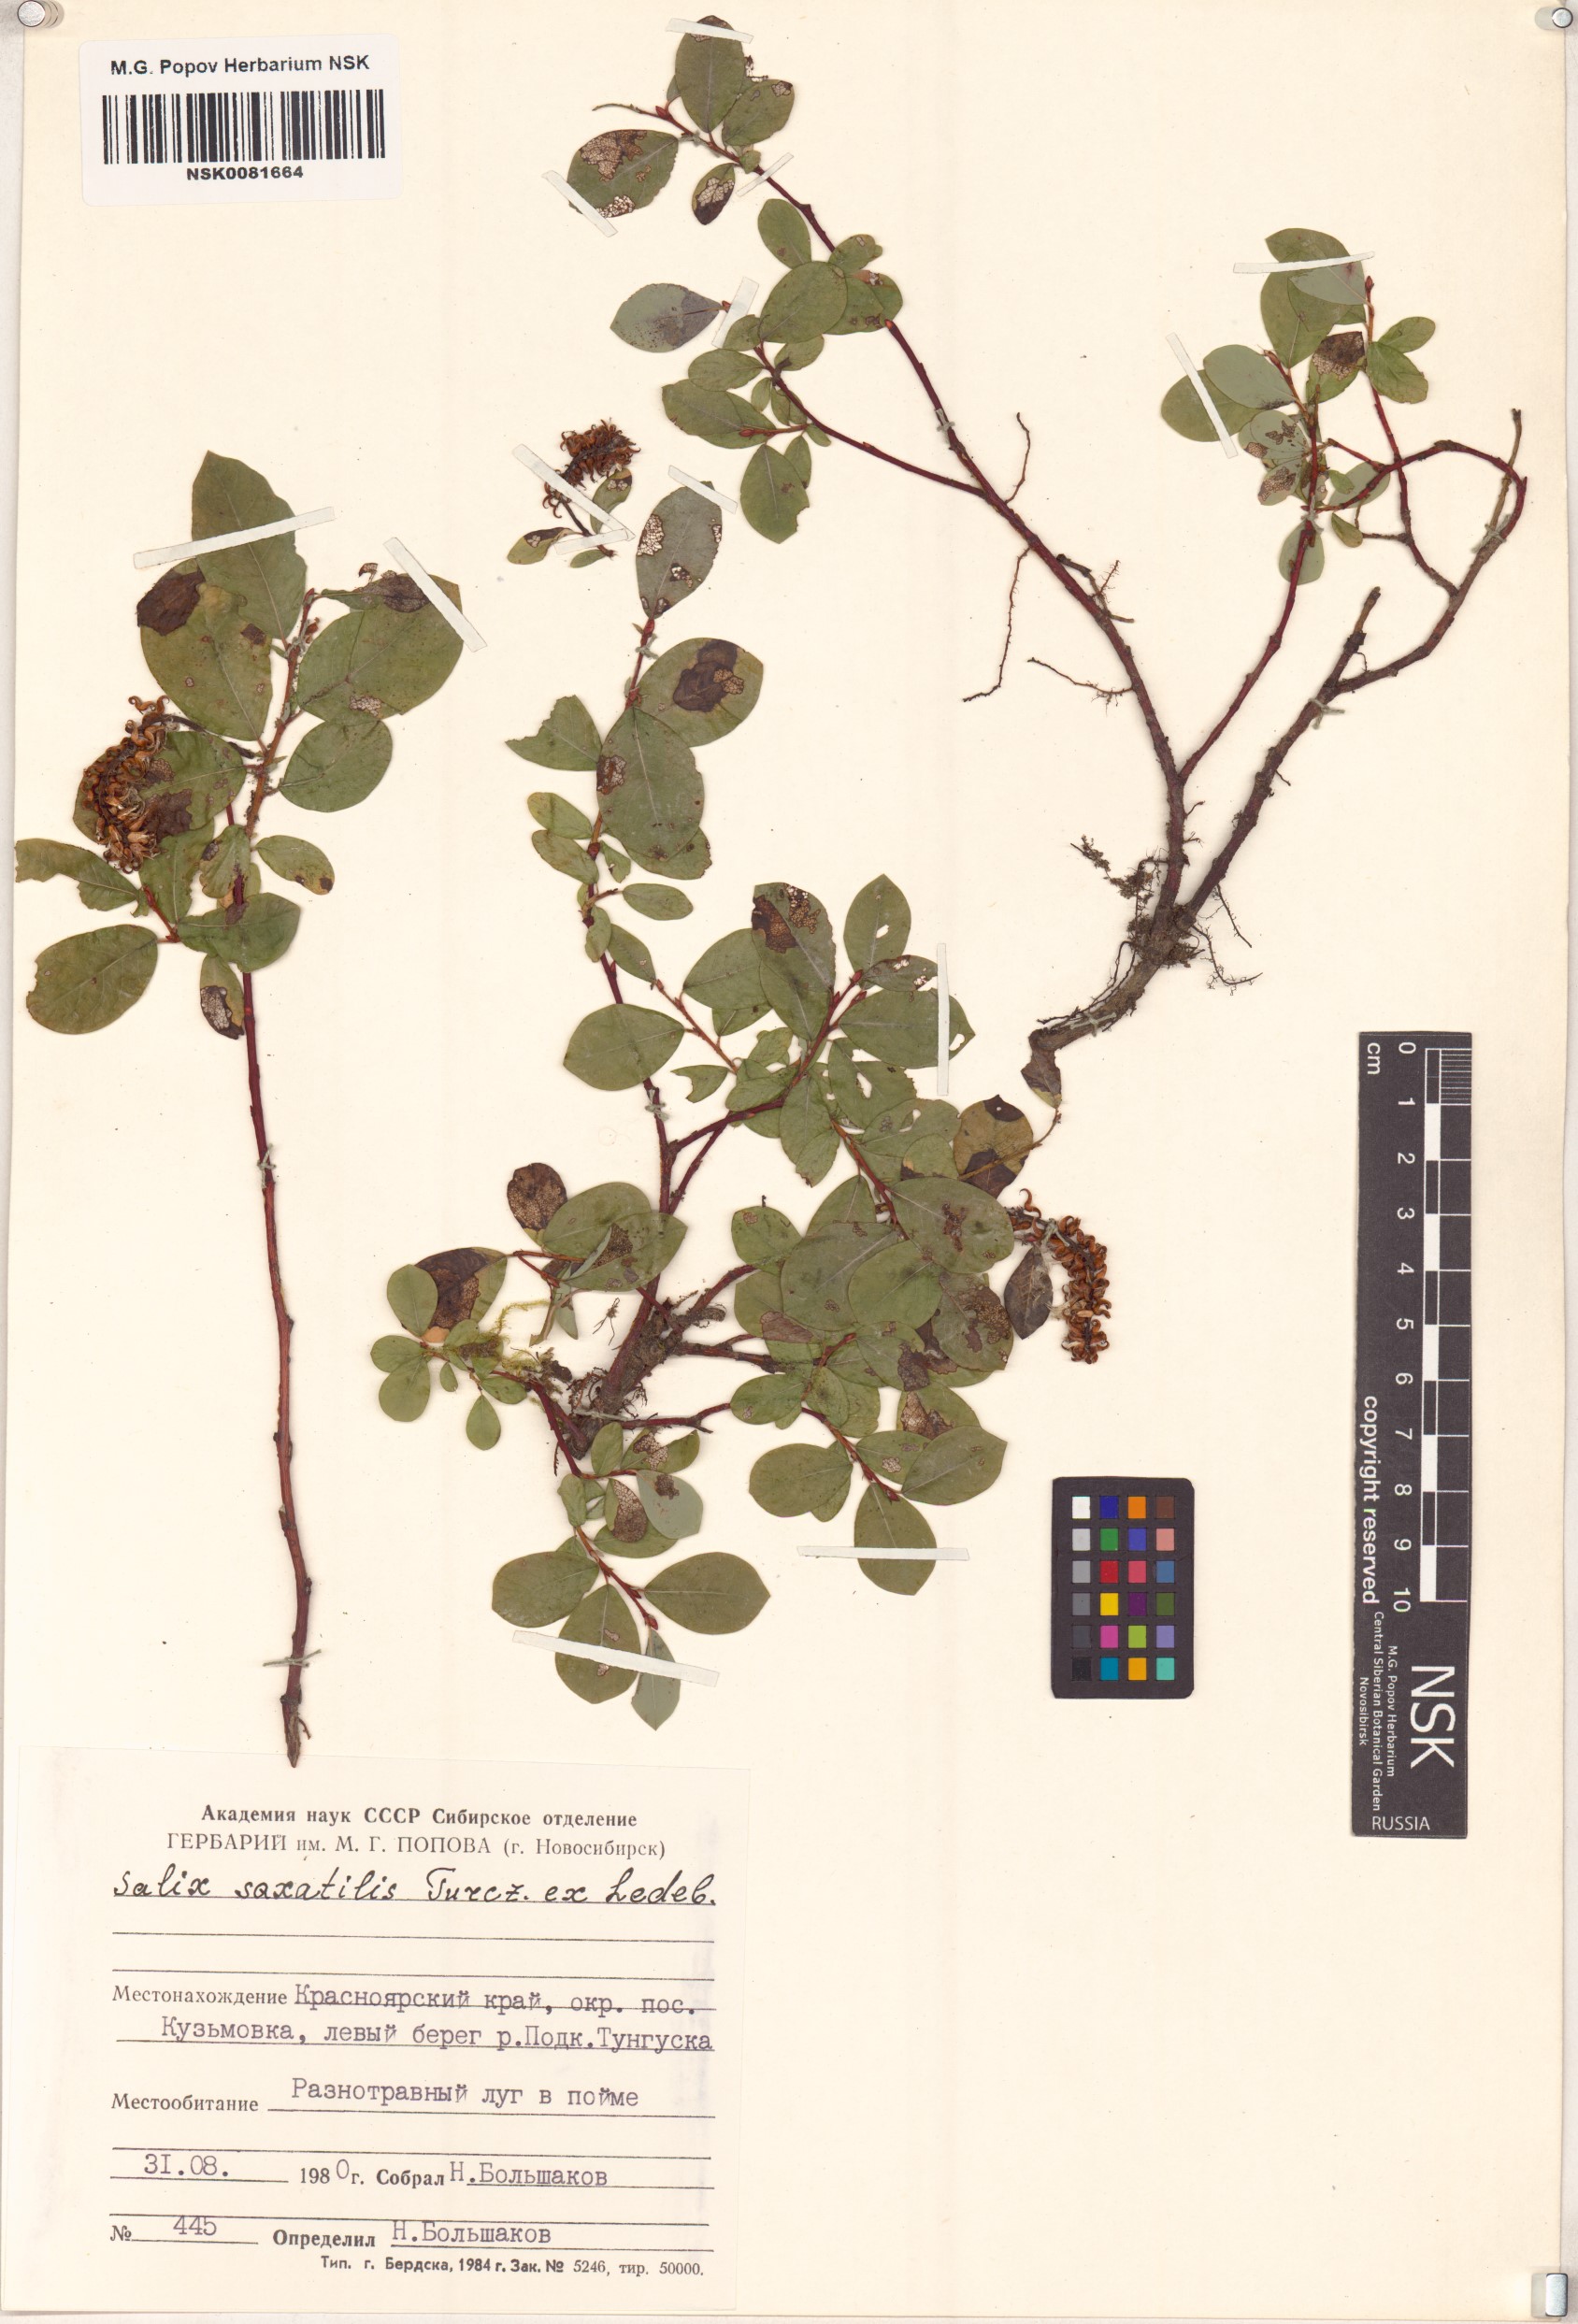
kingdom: Plantae
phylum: Tracheophyta
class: Magnoliopsida
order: Malpighiales
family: Salicaceae
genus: Salix
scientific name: Salix saxatilis
